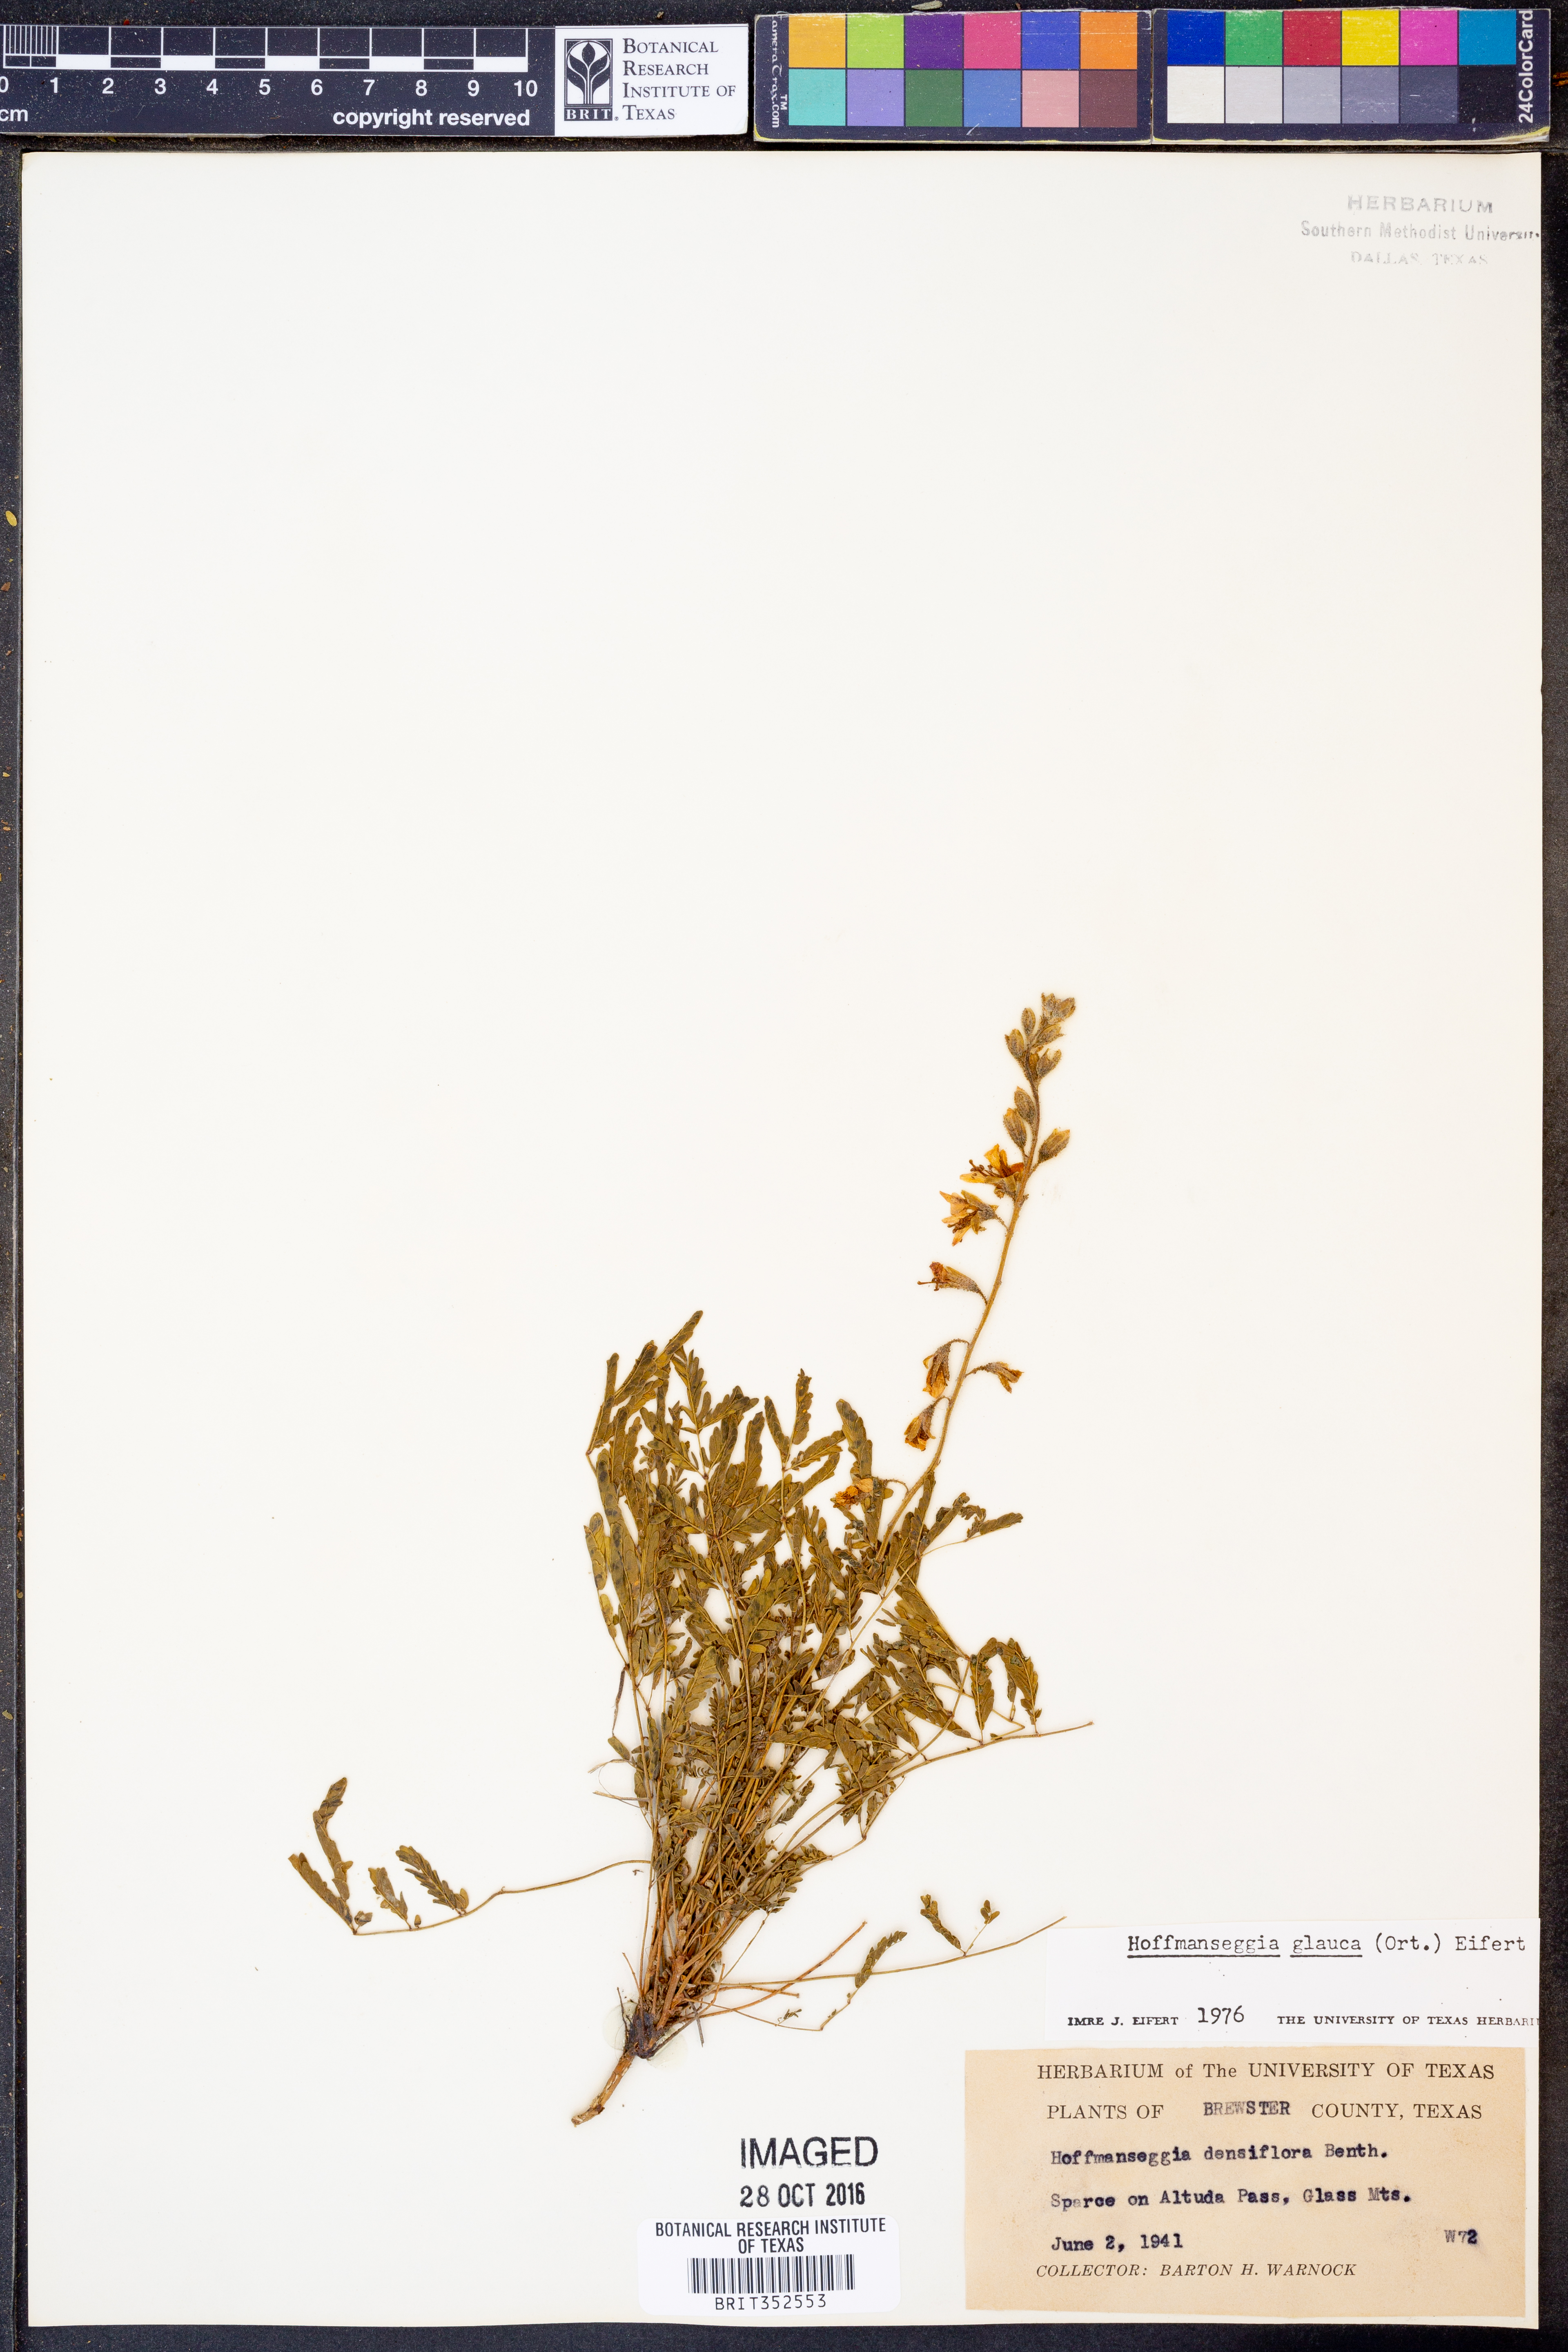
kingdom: Plantae
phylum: Tracheophyta
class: Magnoliopsida
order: Fabales
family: Fabaceae
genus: Hoffmannseggia
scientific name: Hoffmannseggia glauca
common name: Pignut
